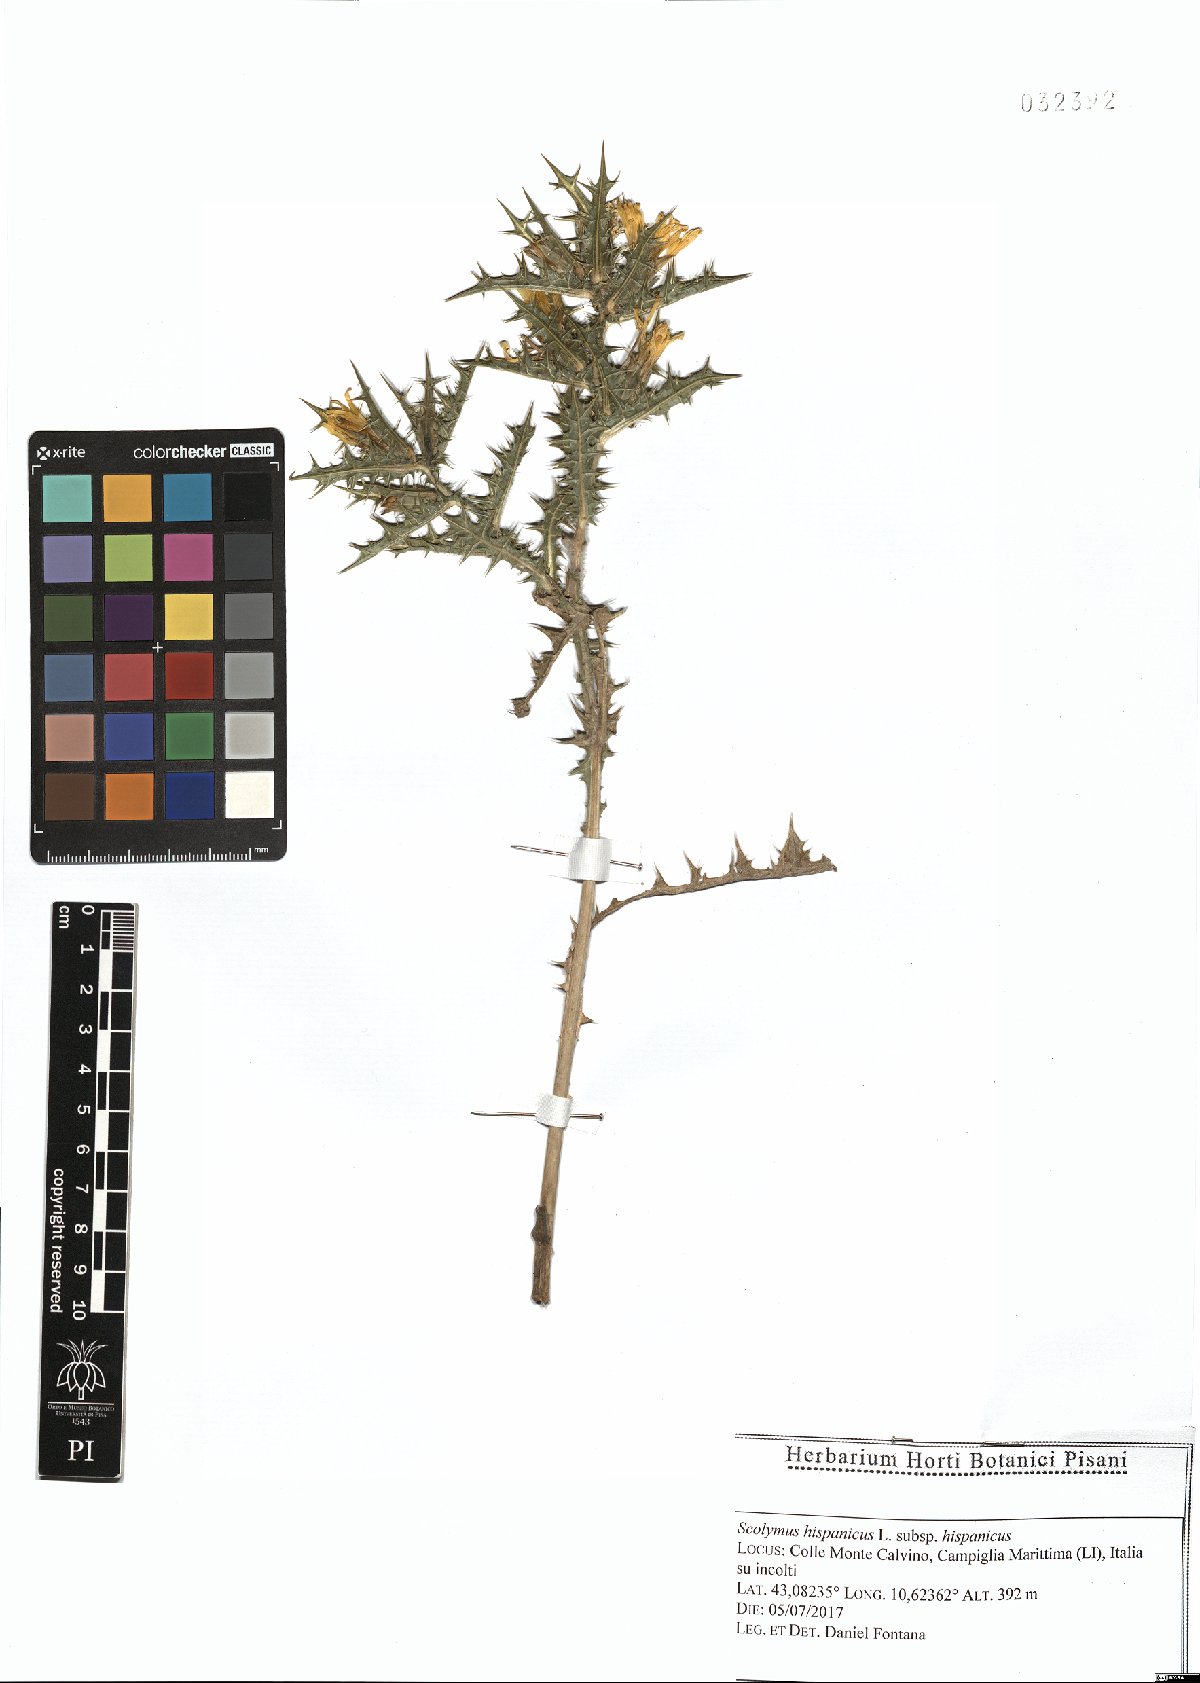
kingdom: Plantae
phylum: Tracheophyta
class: Magnoliopsida
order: Asterales
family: Asteraceae
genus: Scolymus
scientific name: Scolymus hispanicus
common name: Golden thistle
